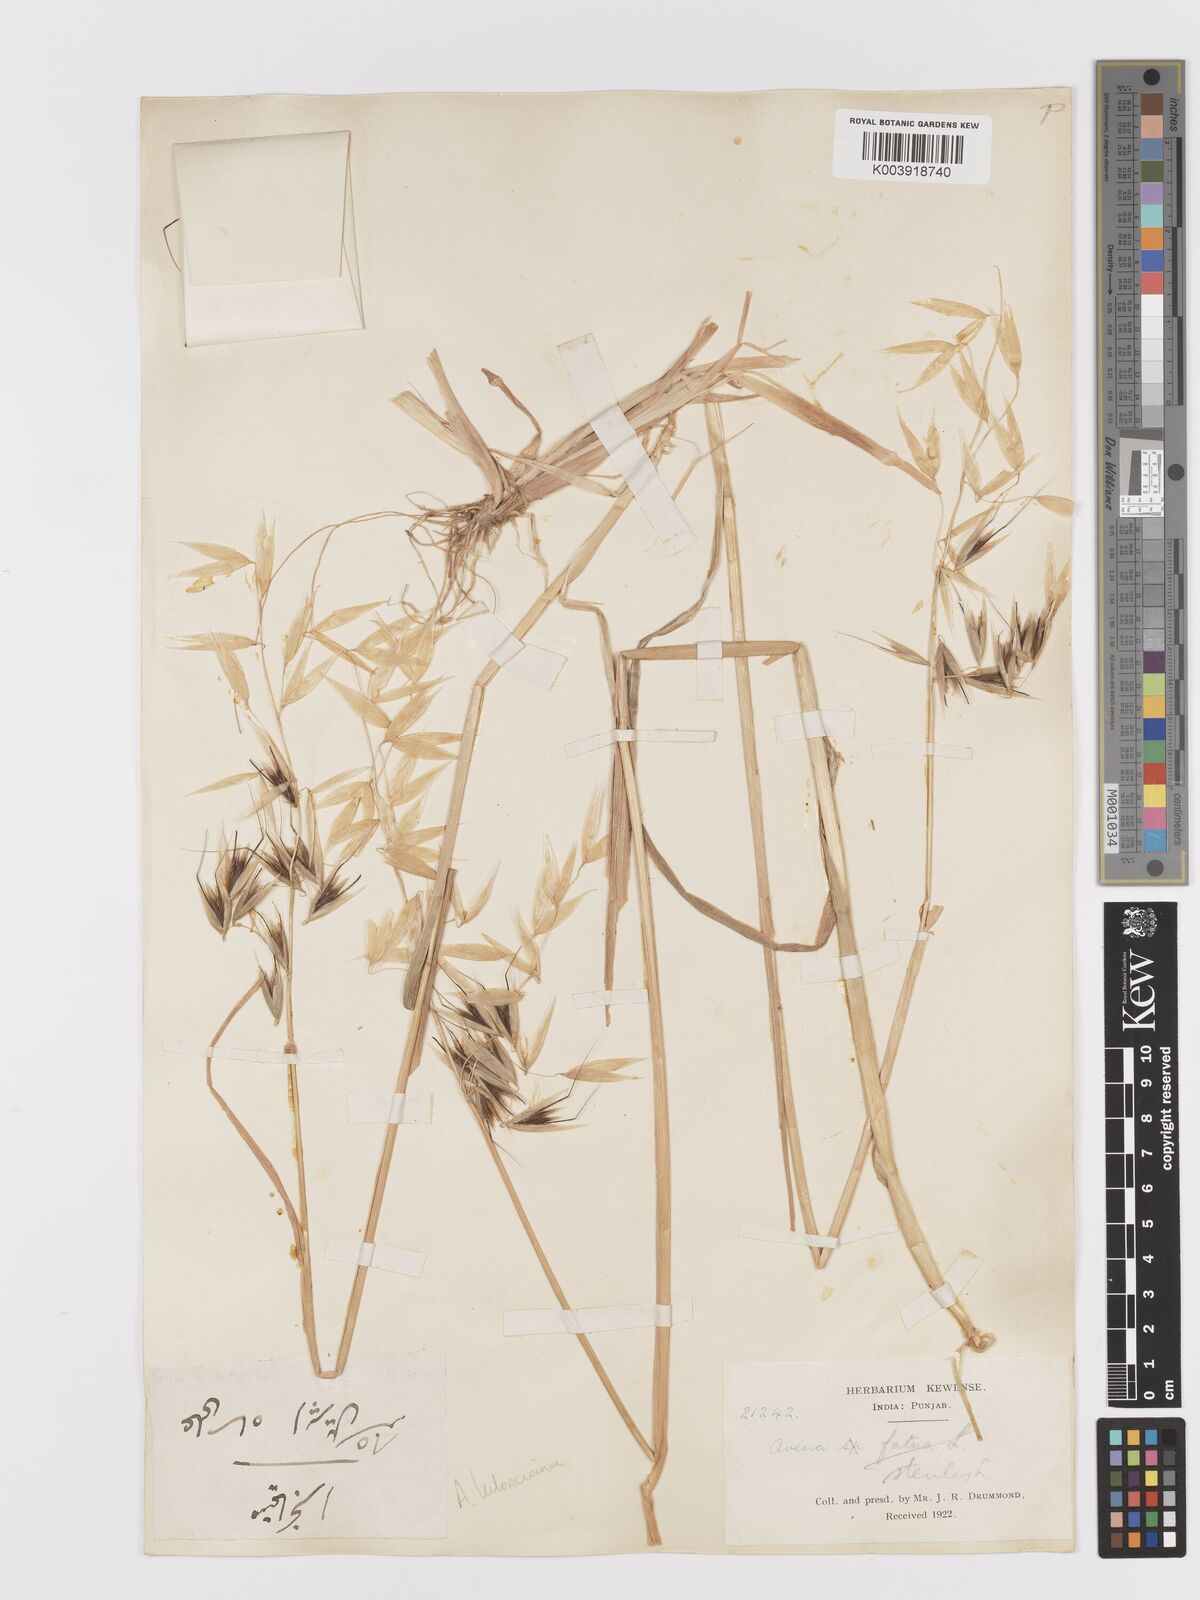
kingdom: Plantae
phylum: Tracheophyta
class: Liliopsida
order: Poales
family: Poaceae
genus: Avena
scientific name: Avena sterilis
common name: Animated oat
